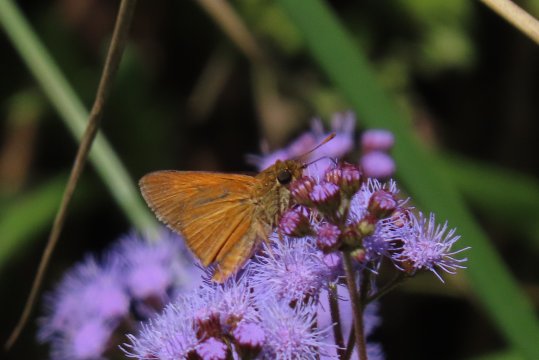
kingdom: Animalia
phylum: Arthropoda
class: Insecta
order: Lepidoptera
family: Hesperiidae
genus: Euphyes
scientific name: Euphyes berryi
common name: Berry's Skipper
